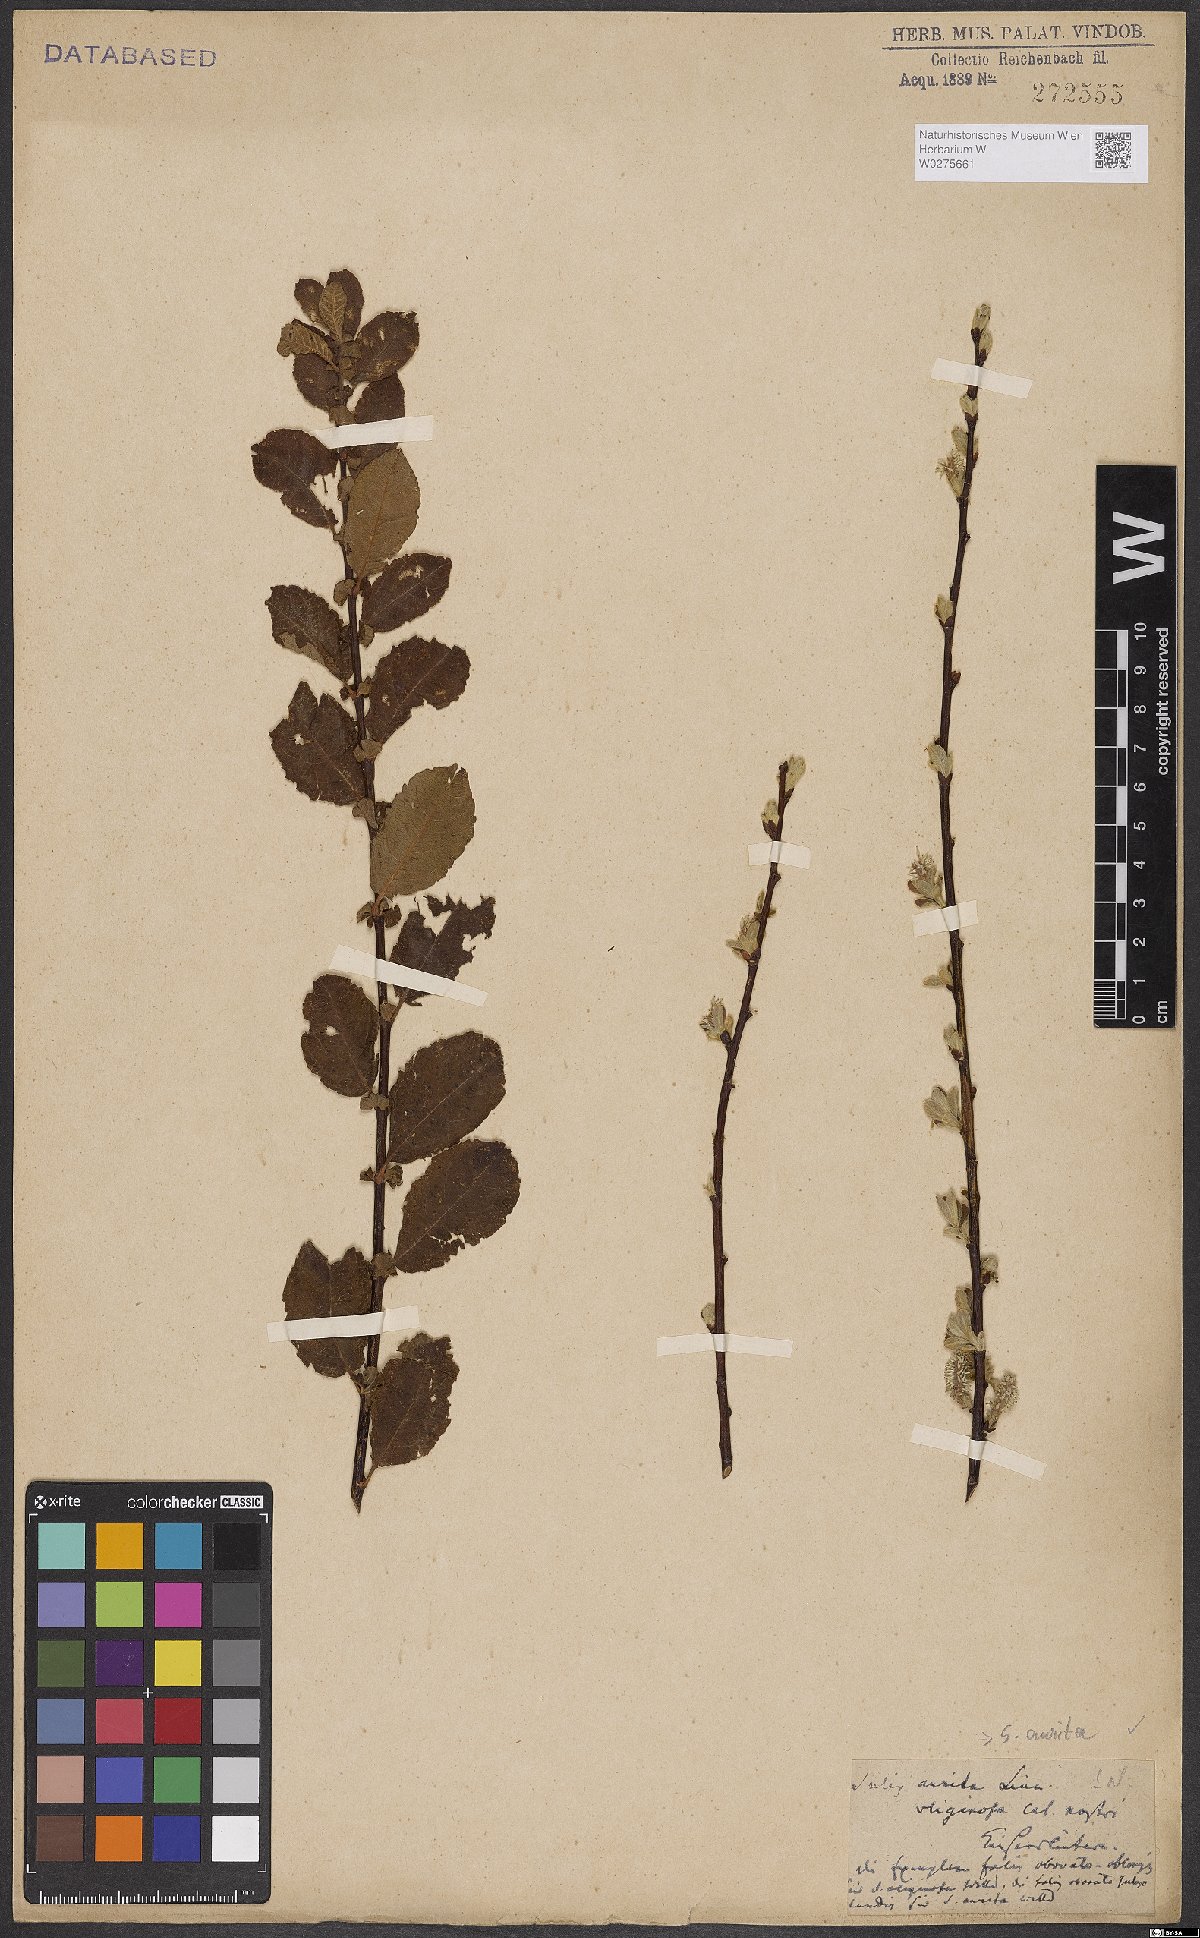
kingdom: Plantae
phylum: Tracheophyta
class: Magnoliopsida
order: Malpighiales
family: Salicaceae
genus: Salix
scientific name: Salix aurita
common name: Eared willow
